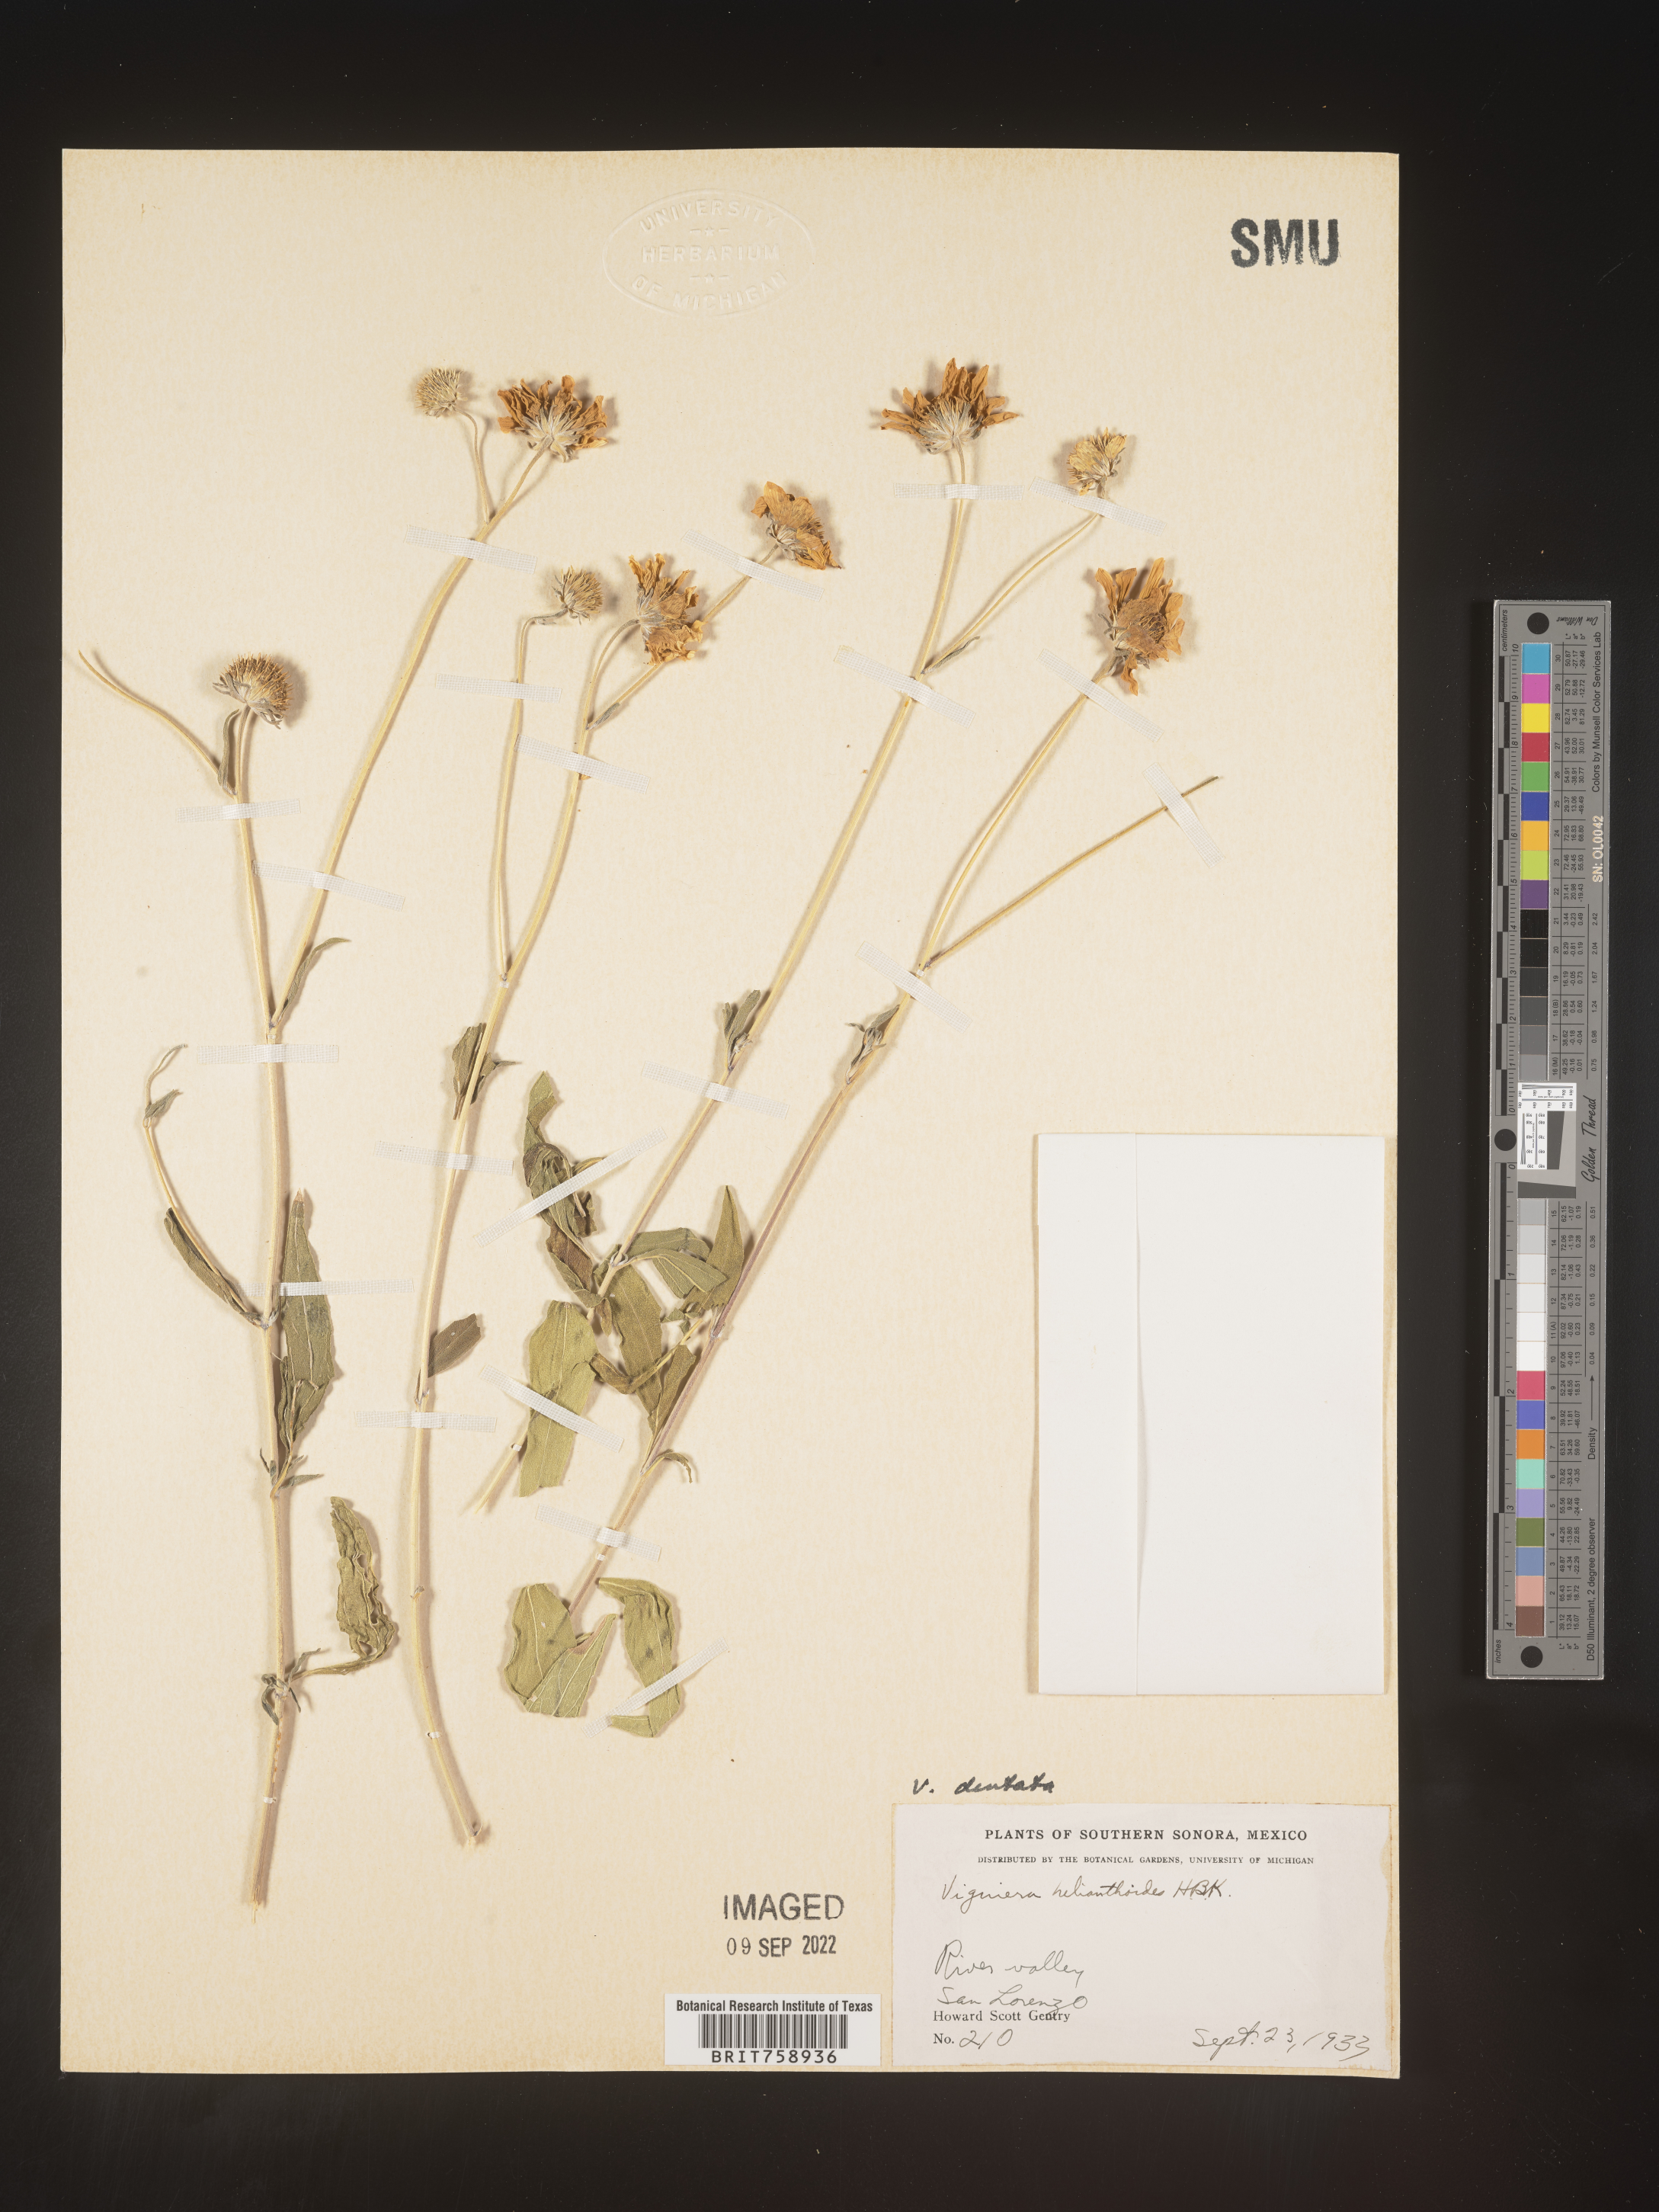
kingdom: Plantae
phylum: Tracheophyta
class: Magnoliopsida
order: Asterales
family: Asteraceae
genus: Viguiera
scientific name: Viguiera
